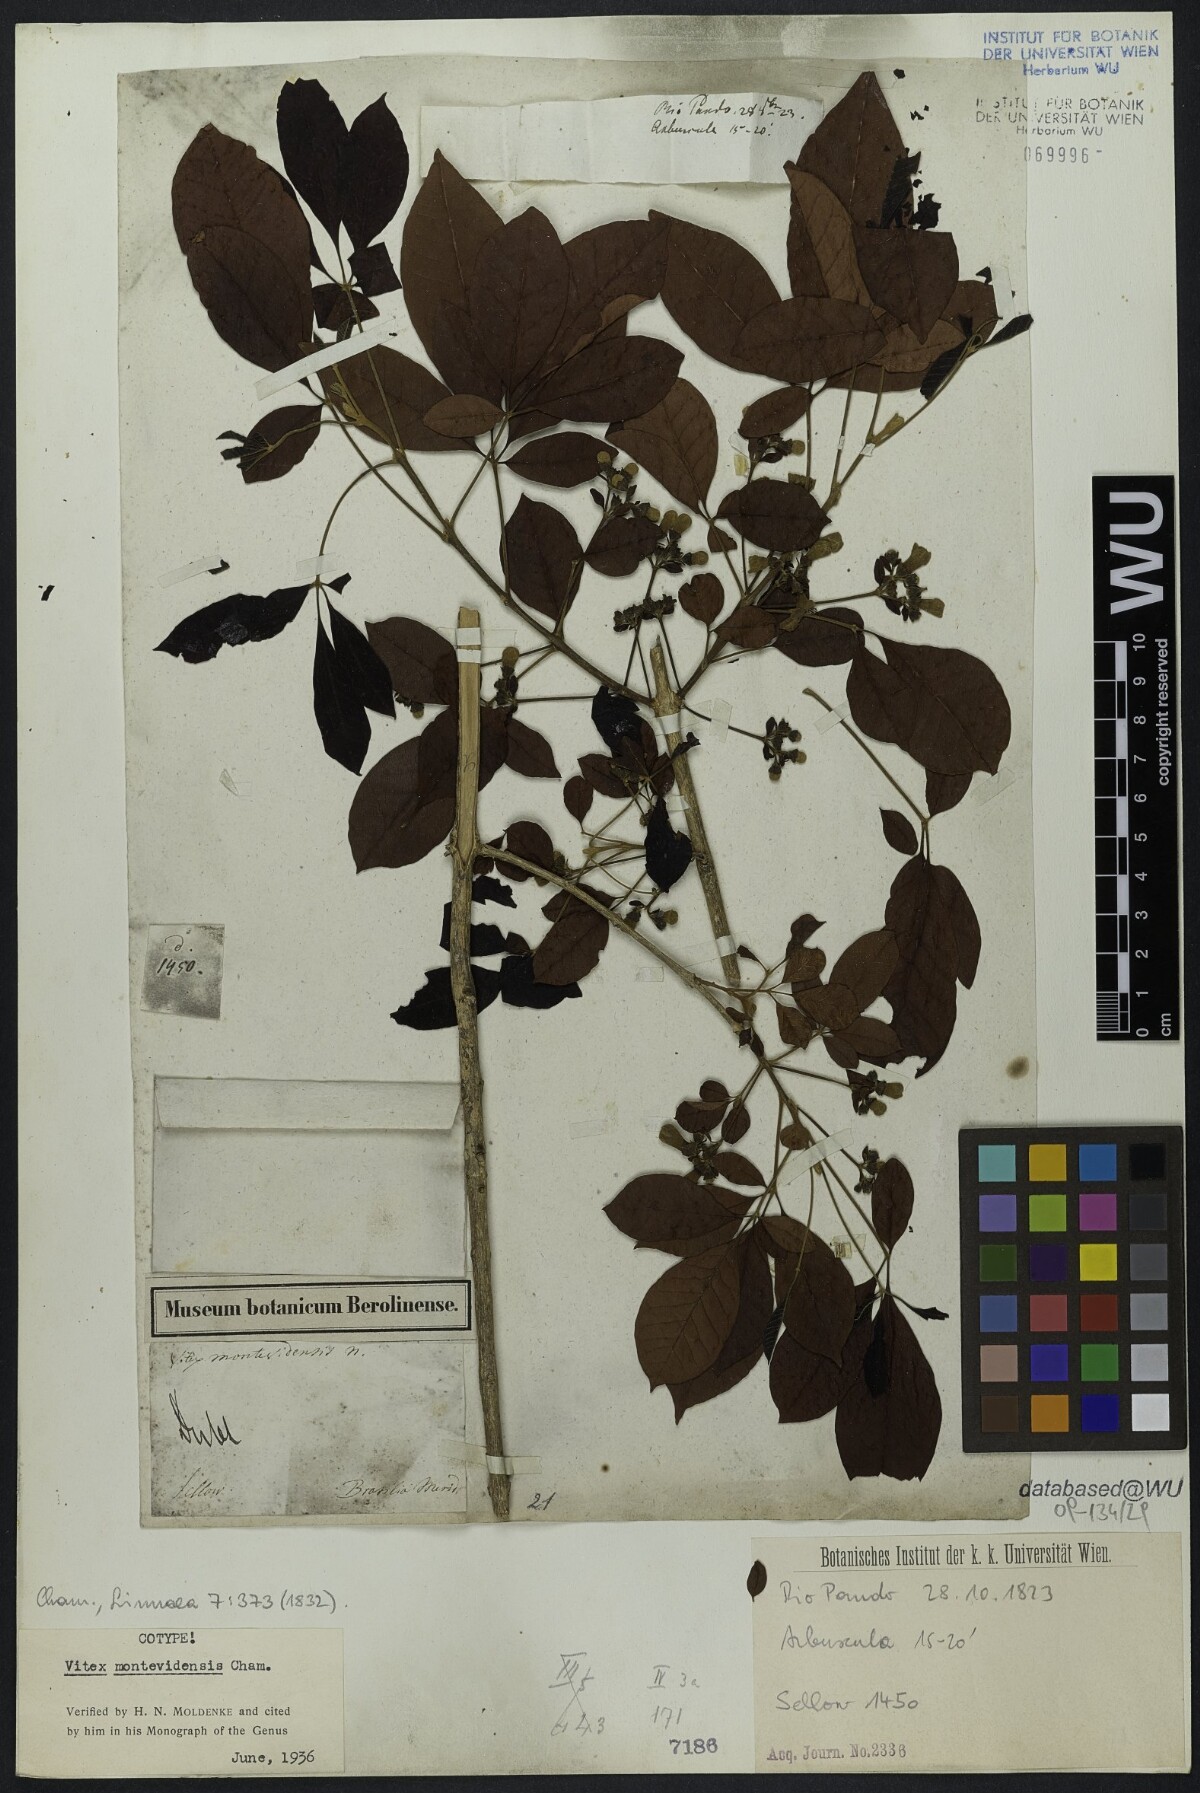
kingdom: Plantae
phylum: Tracheophyta
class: Magnoliopsida
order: Lamiales
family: Lamiaceae
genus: Vitex
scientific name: Vitex megapotamica
